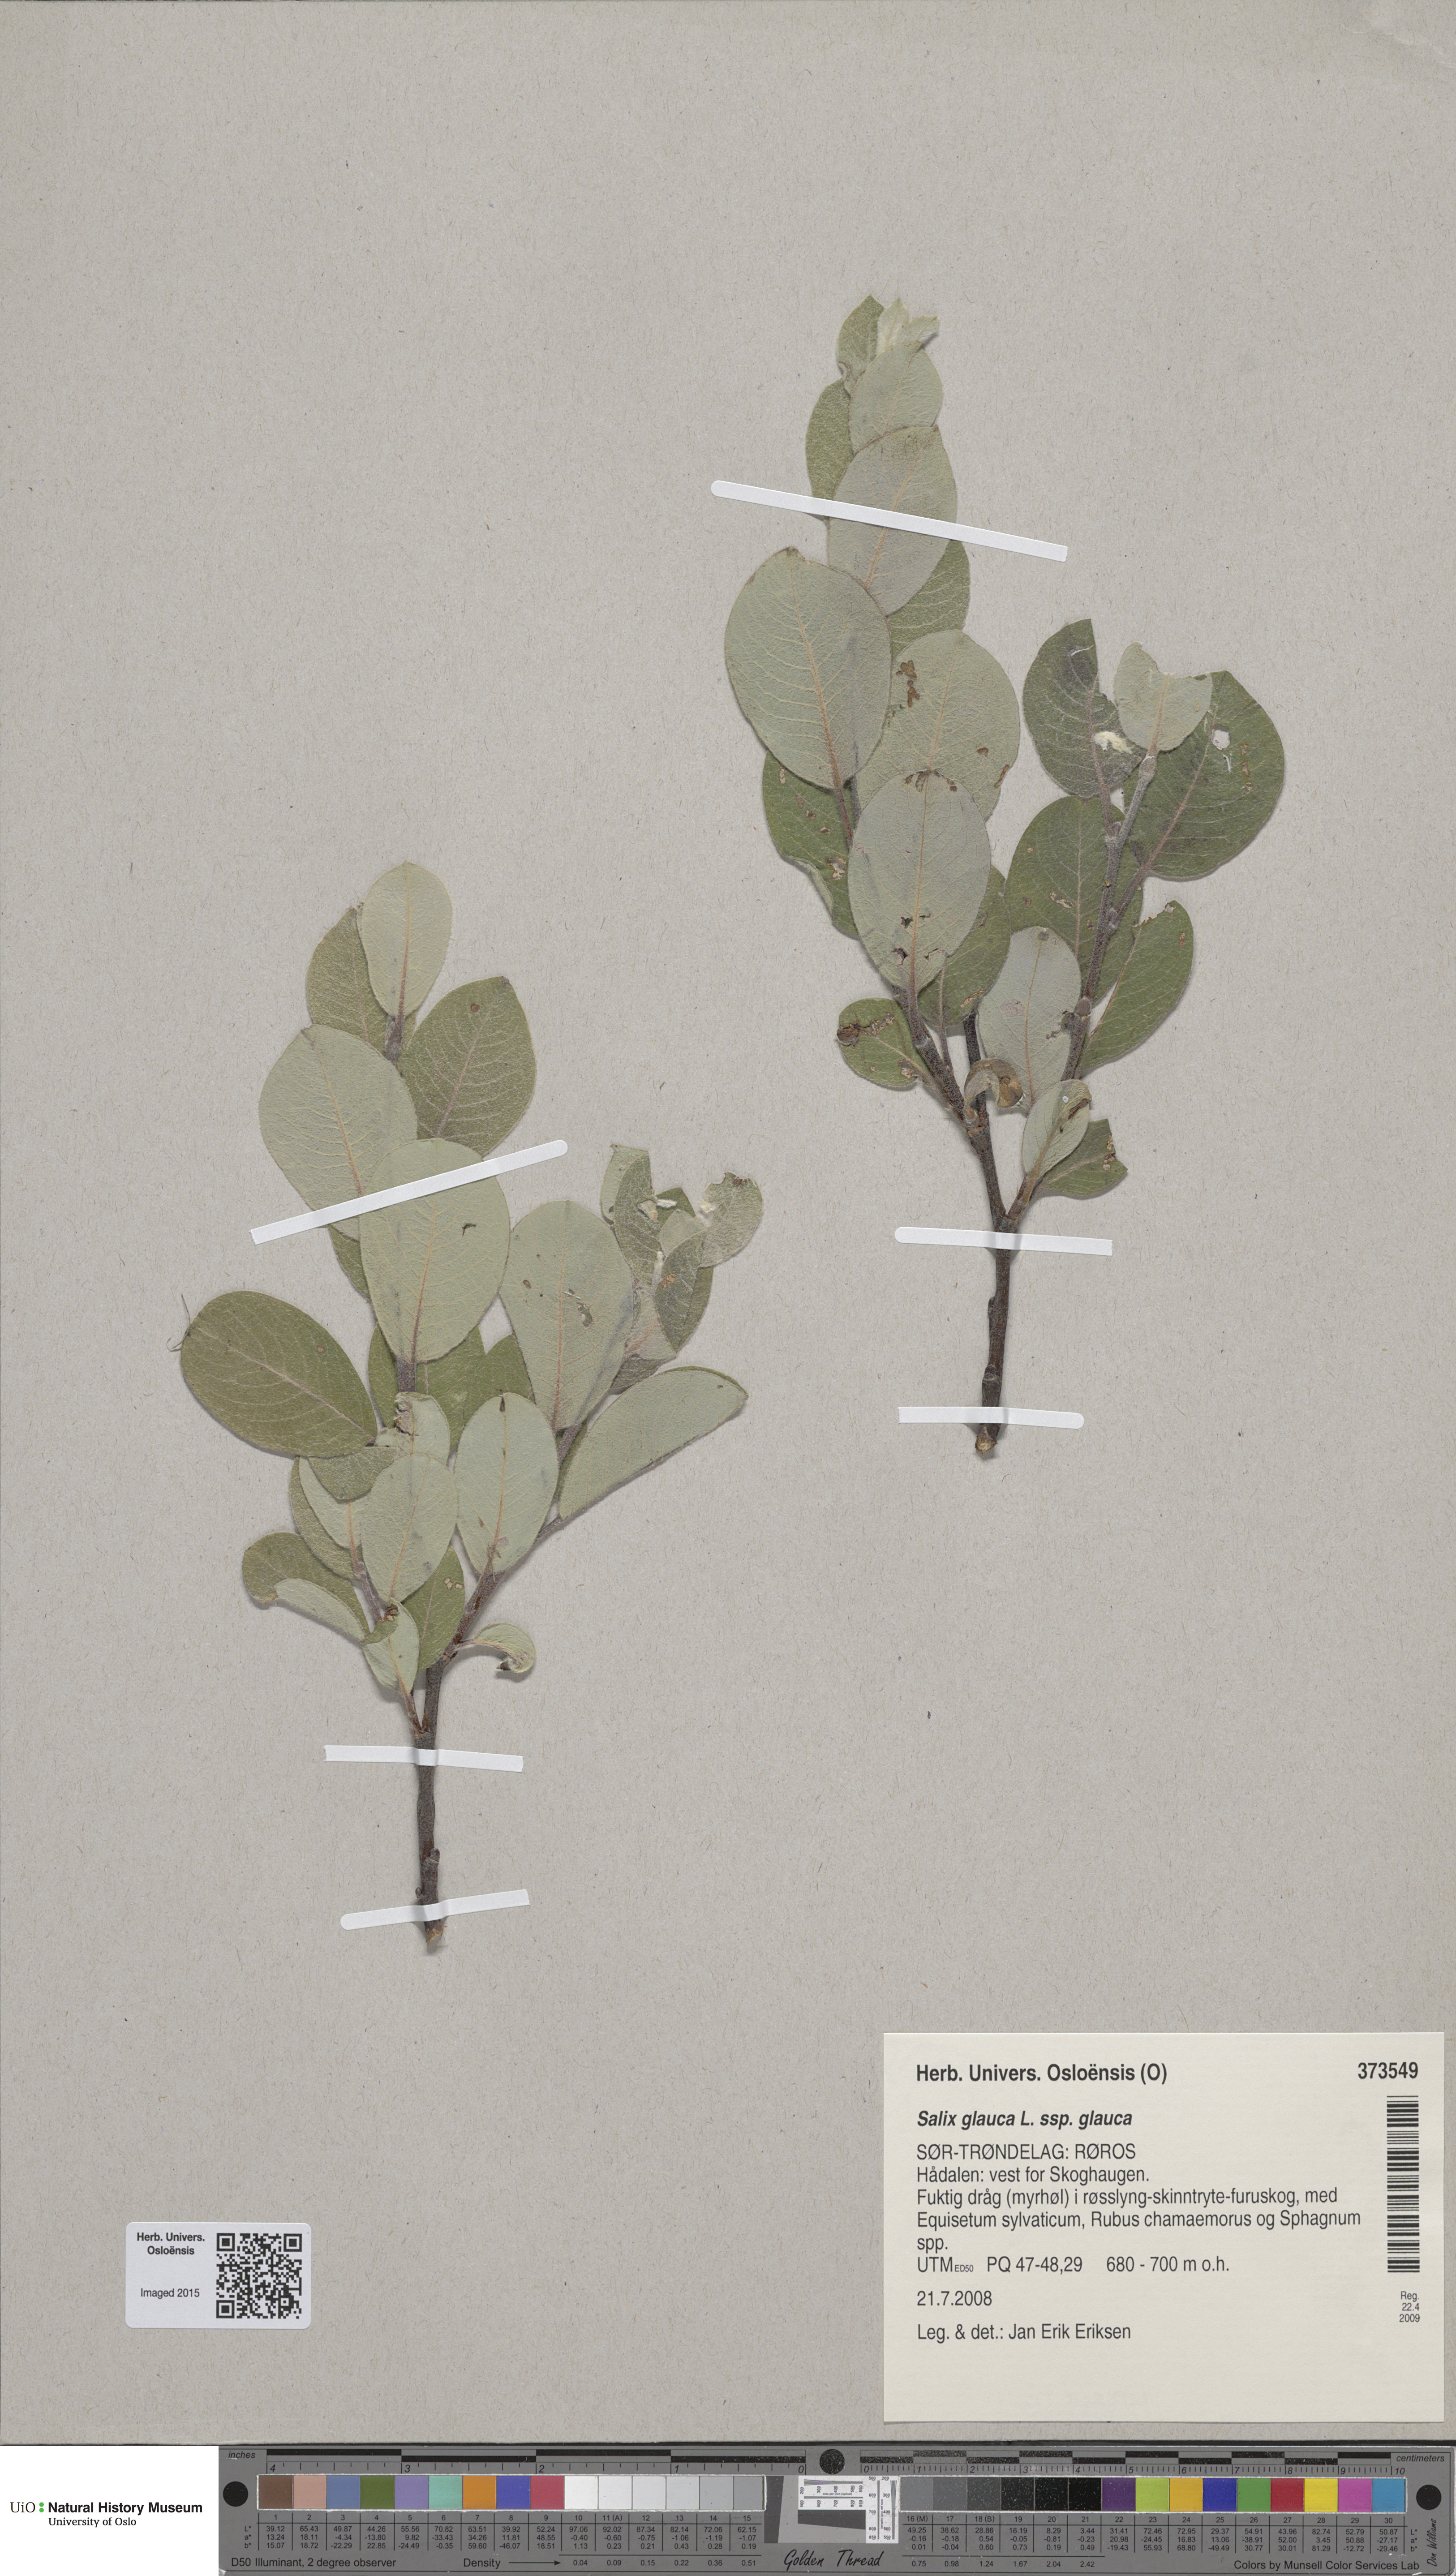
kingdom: Plantae
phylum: Tracheophyta
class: Magnoliopsida
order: Malpighiales
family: Salicaceae
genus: Salix
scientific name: Salix glauca
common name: Glaucous willow
